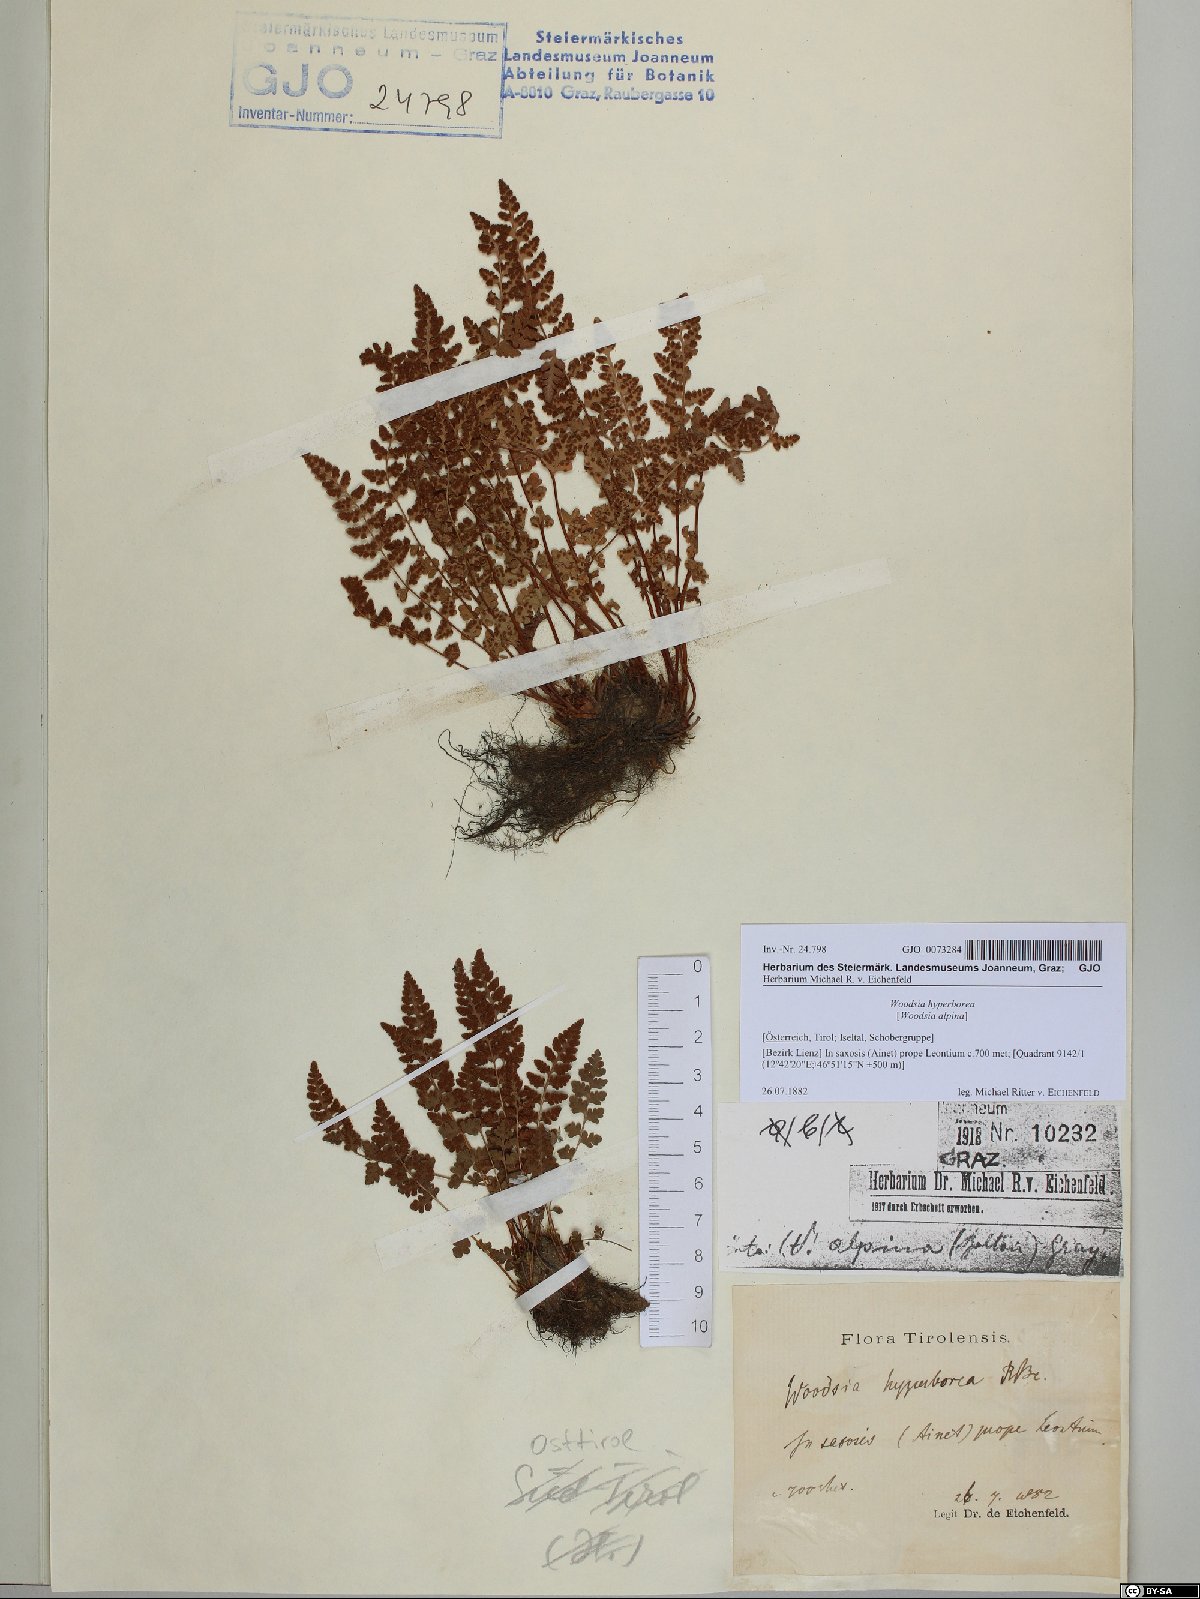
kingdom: Plantae
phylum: Tracheophyta
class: Polypodiopsida
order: Polypodiales
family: Woodsiaceae
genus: Woodsia
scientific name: Woodsia alpina
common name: Alpine woodsia
